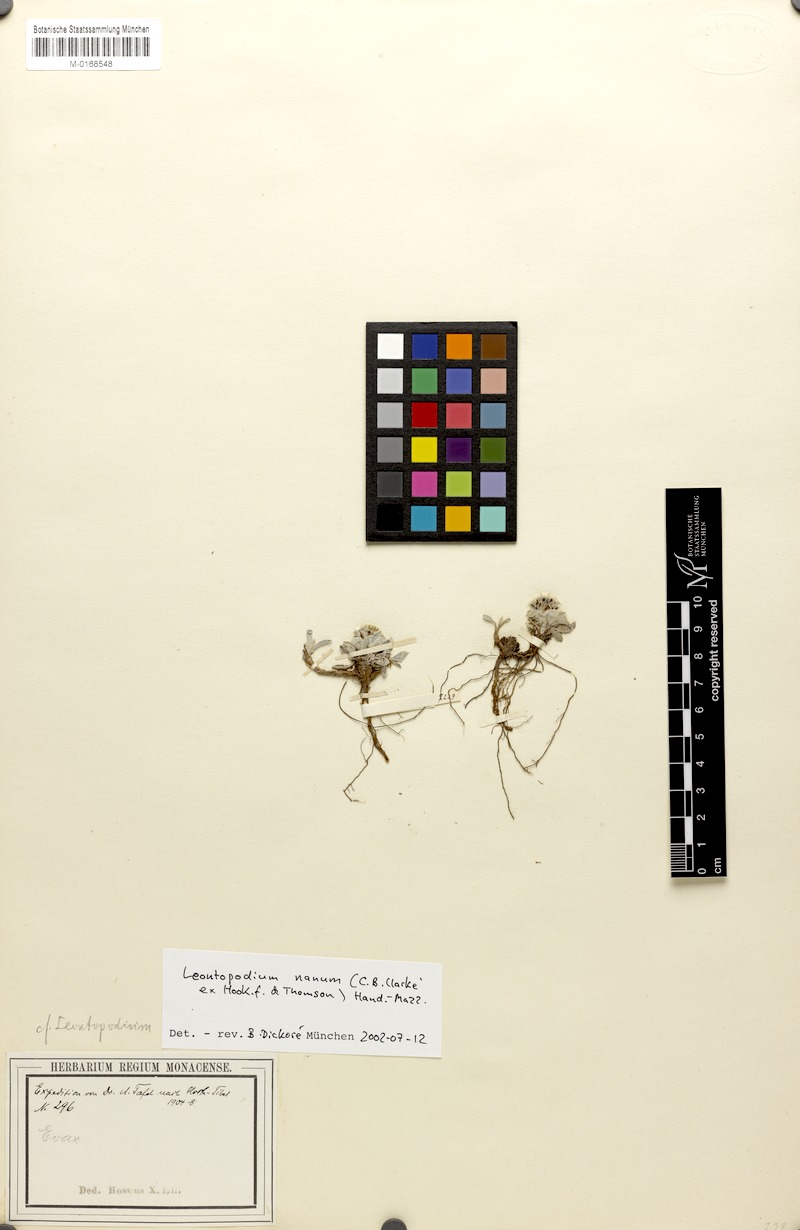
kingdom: Plantae
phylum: Tracheophyta
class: Magnoliopsida
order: Asterales
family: Asteraceae
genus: Leontopodium
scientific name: Leontopodium nanum
